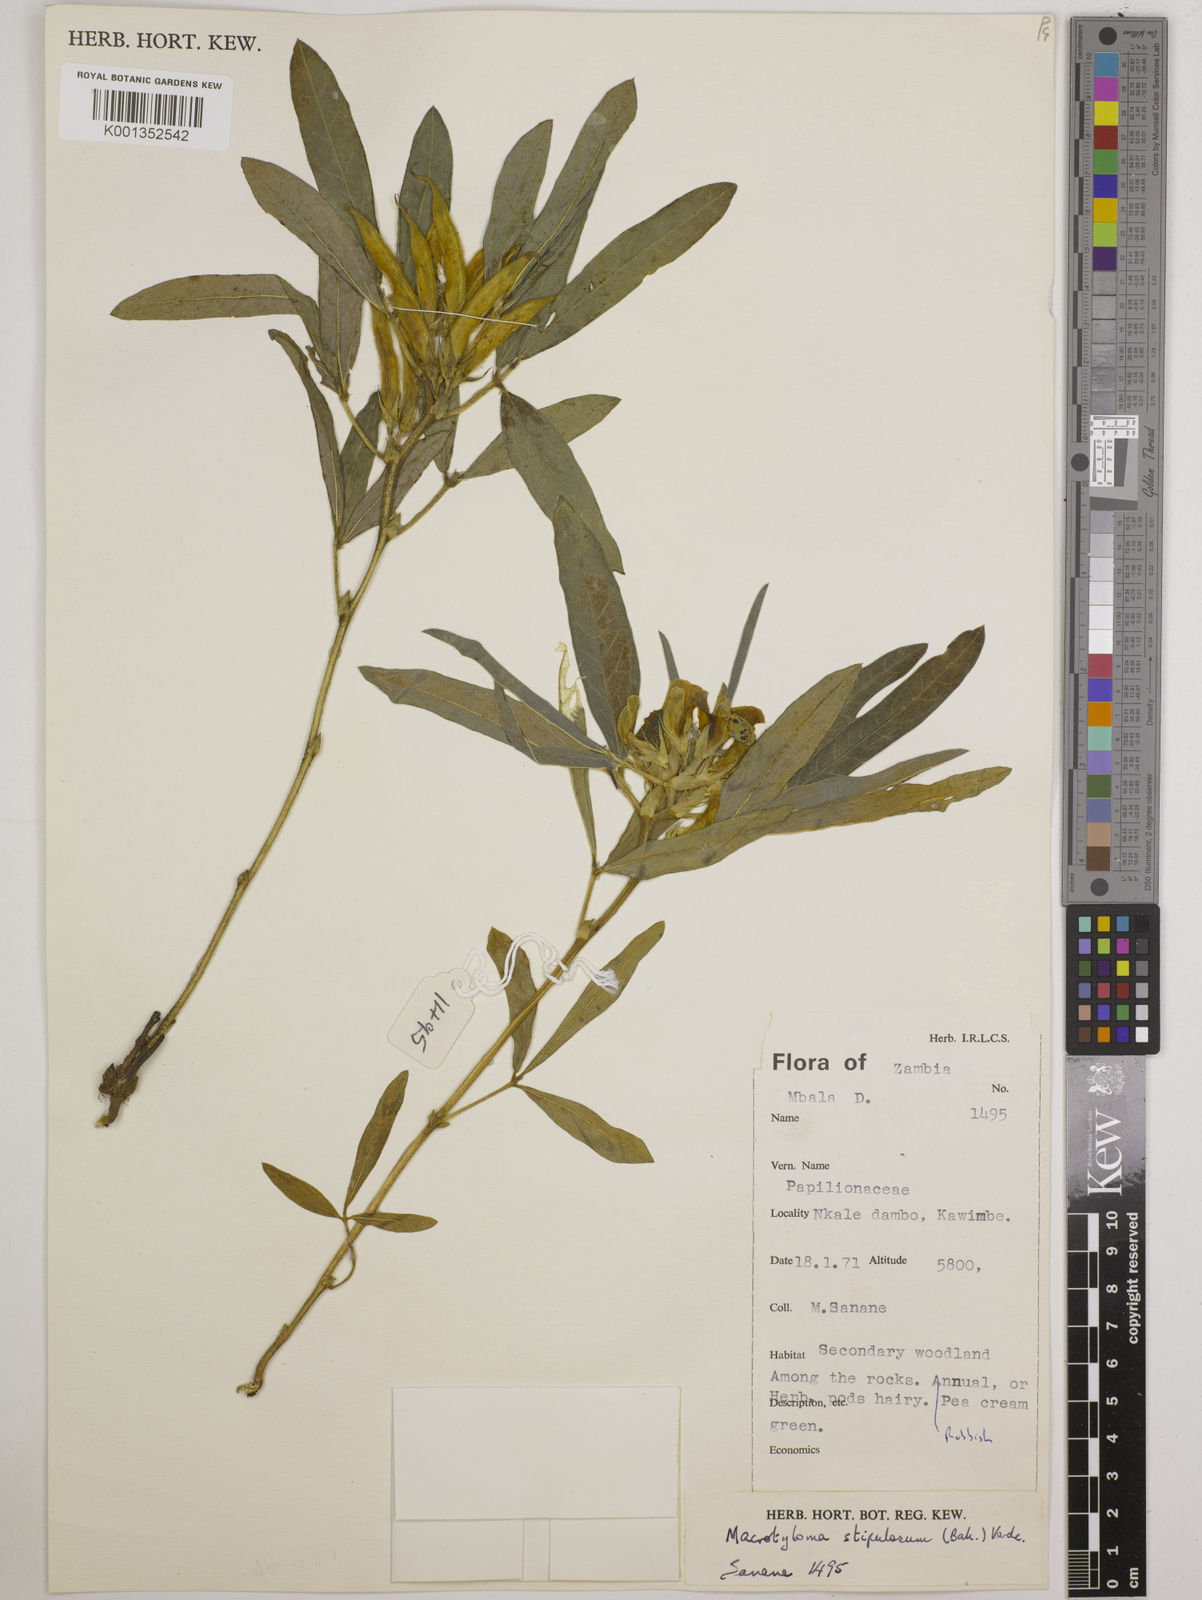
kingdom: Plantae
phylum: Tracheophyta
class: Magnoliopsida
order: Fabales
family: Fabaceae
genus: Macrotyloma
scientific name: Macrotyloma stipulosum
